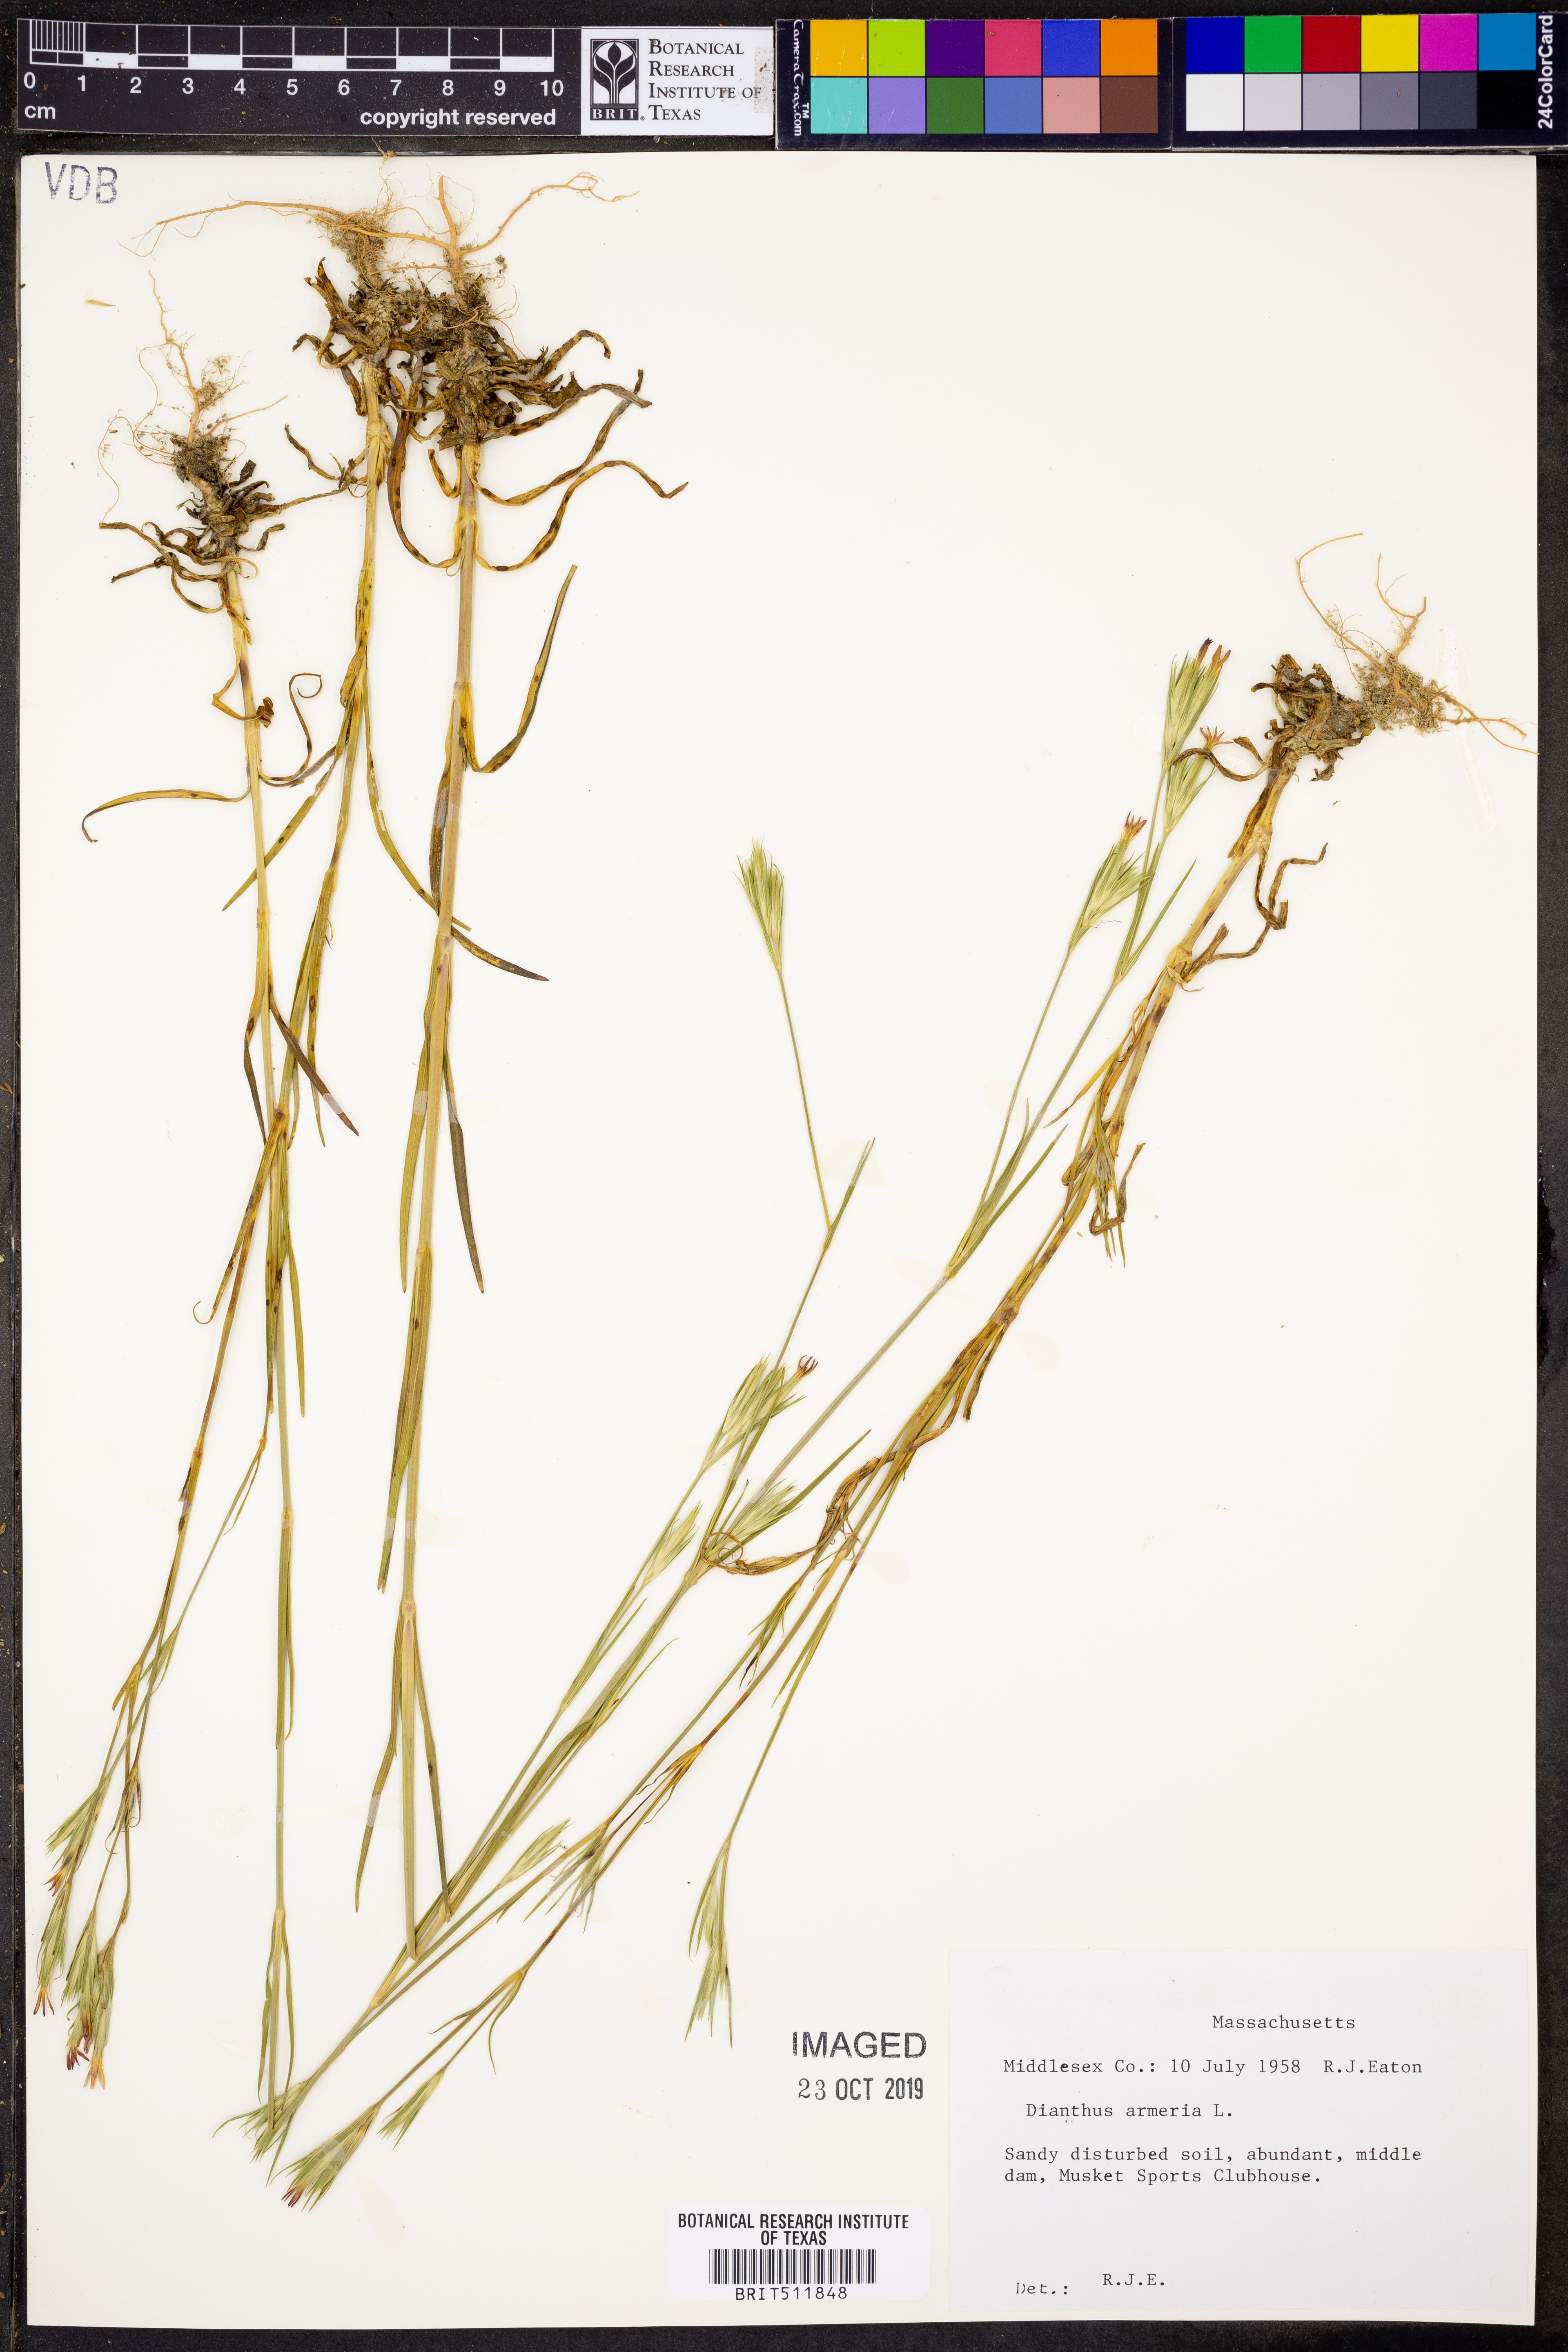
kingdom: Plantae
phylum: Tracheophyta
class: Magnoliopsida
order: Caryophyllales
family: Caryophyllaceae
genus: Dianthus
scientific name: Dianthus armeria
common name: Deptford pink
